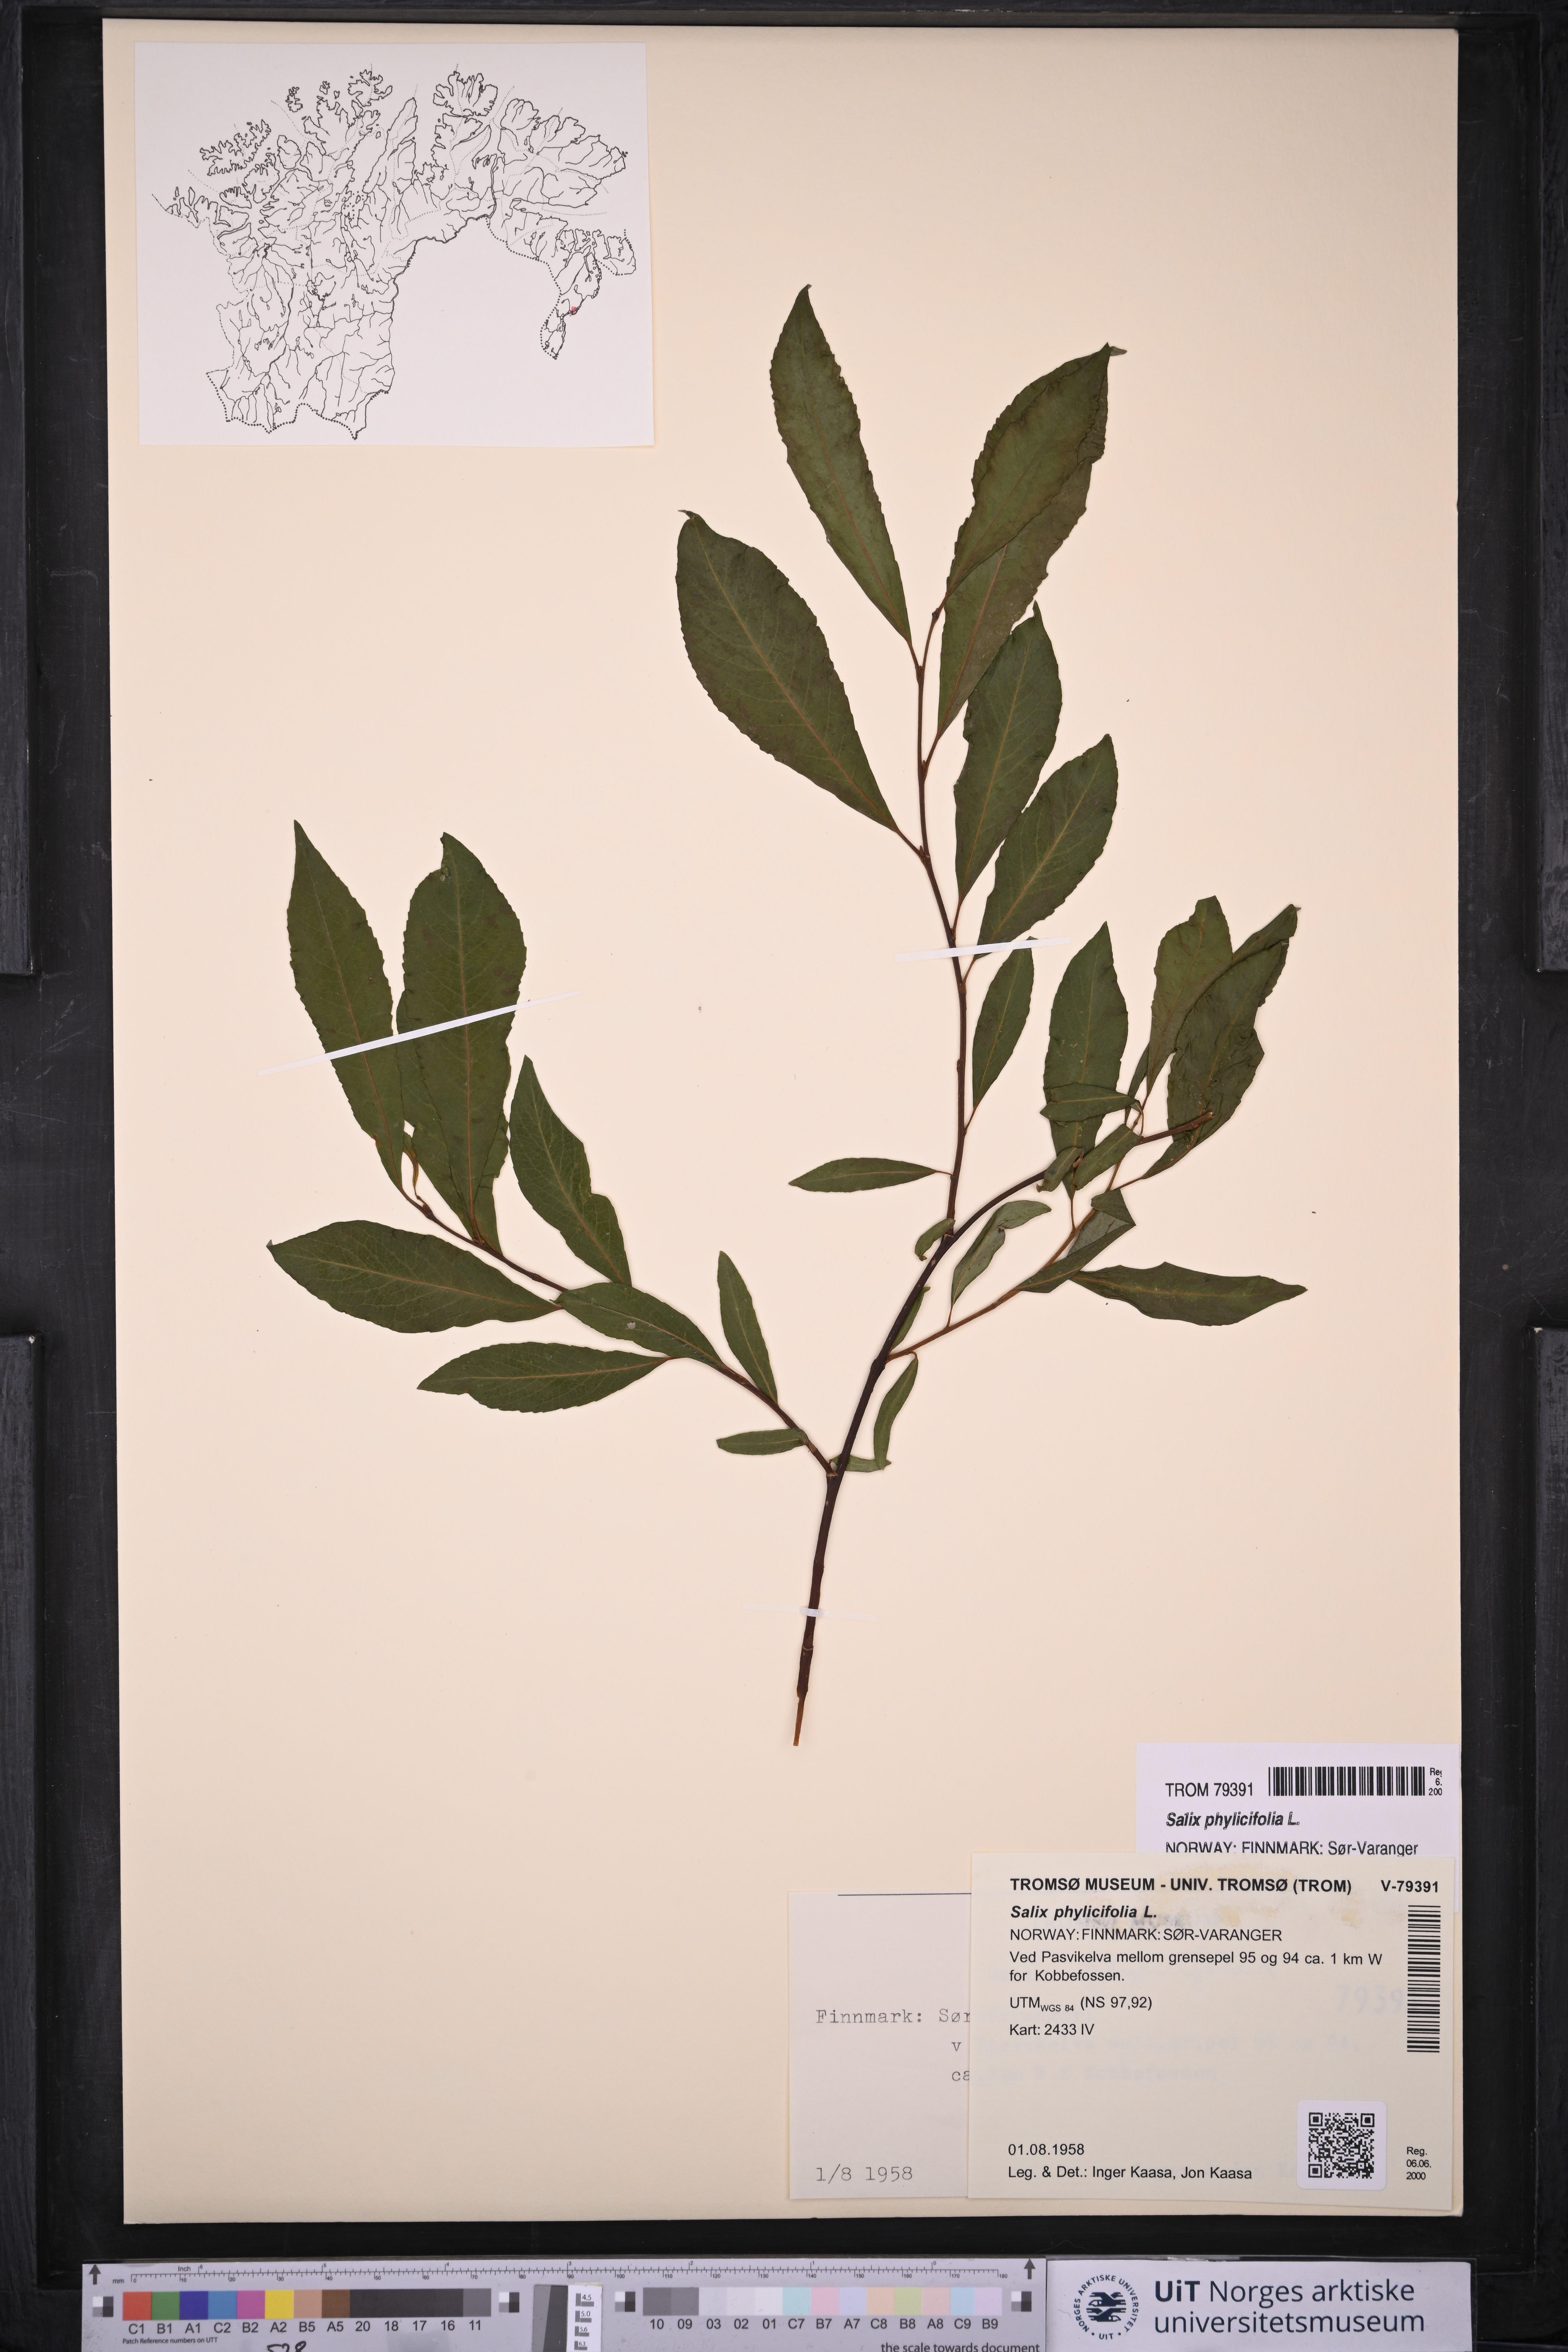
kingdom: Plantae
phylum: Tracheophyta
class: Magnoliopsida
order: Malpighiales
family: Salicaceae
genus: Salix
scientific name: Salix phylicifolia
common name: Tea-leaved willow
